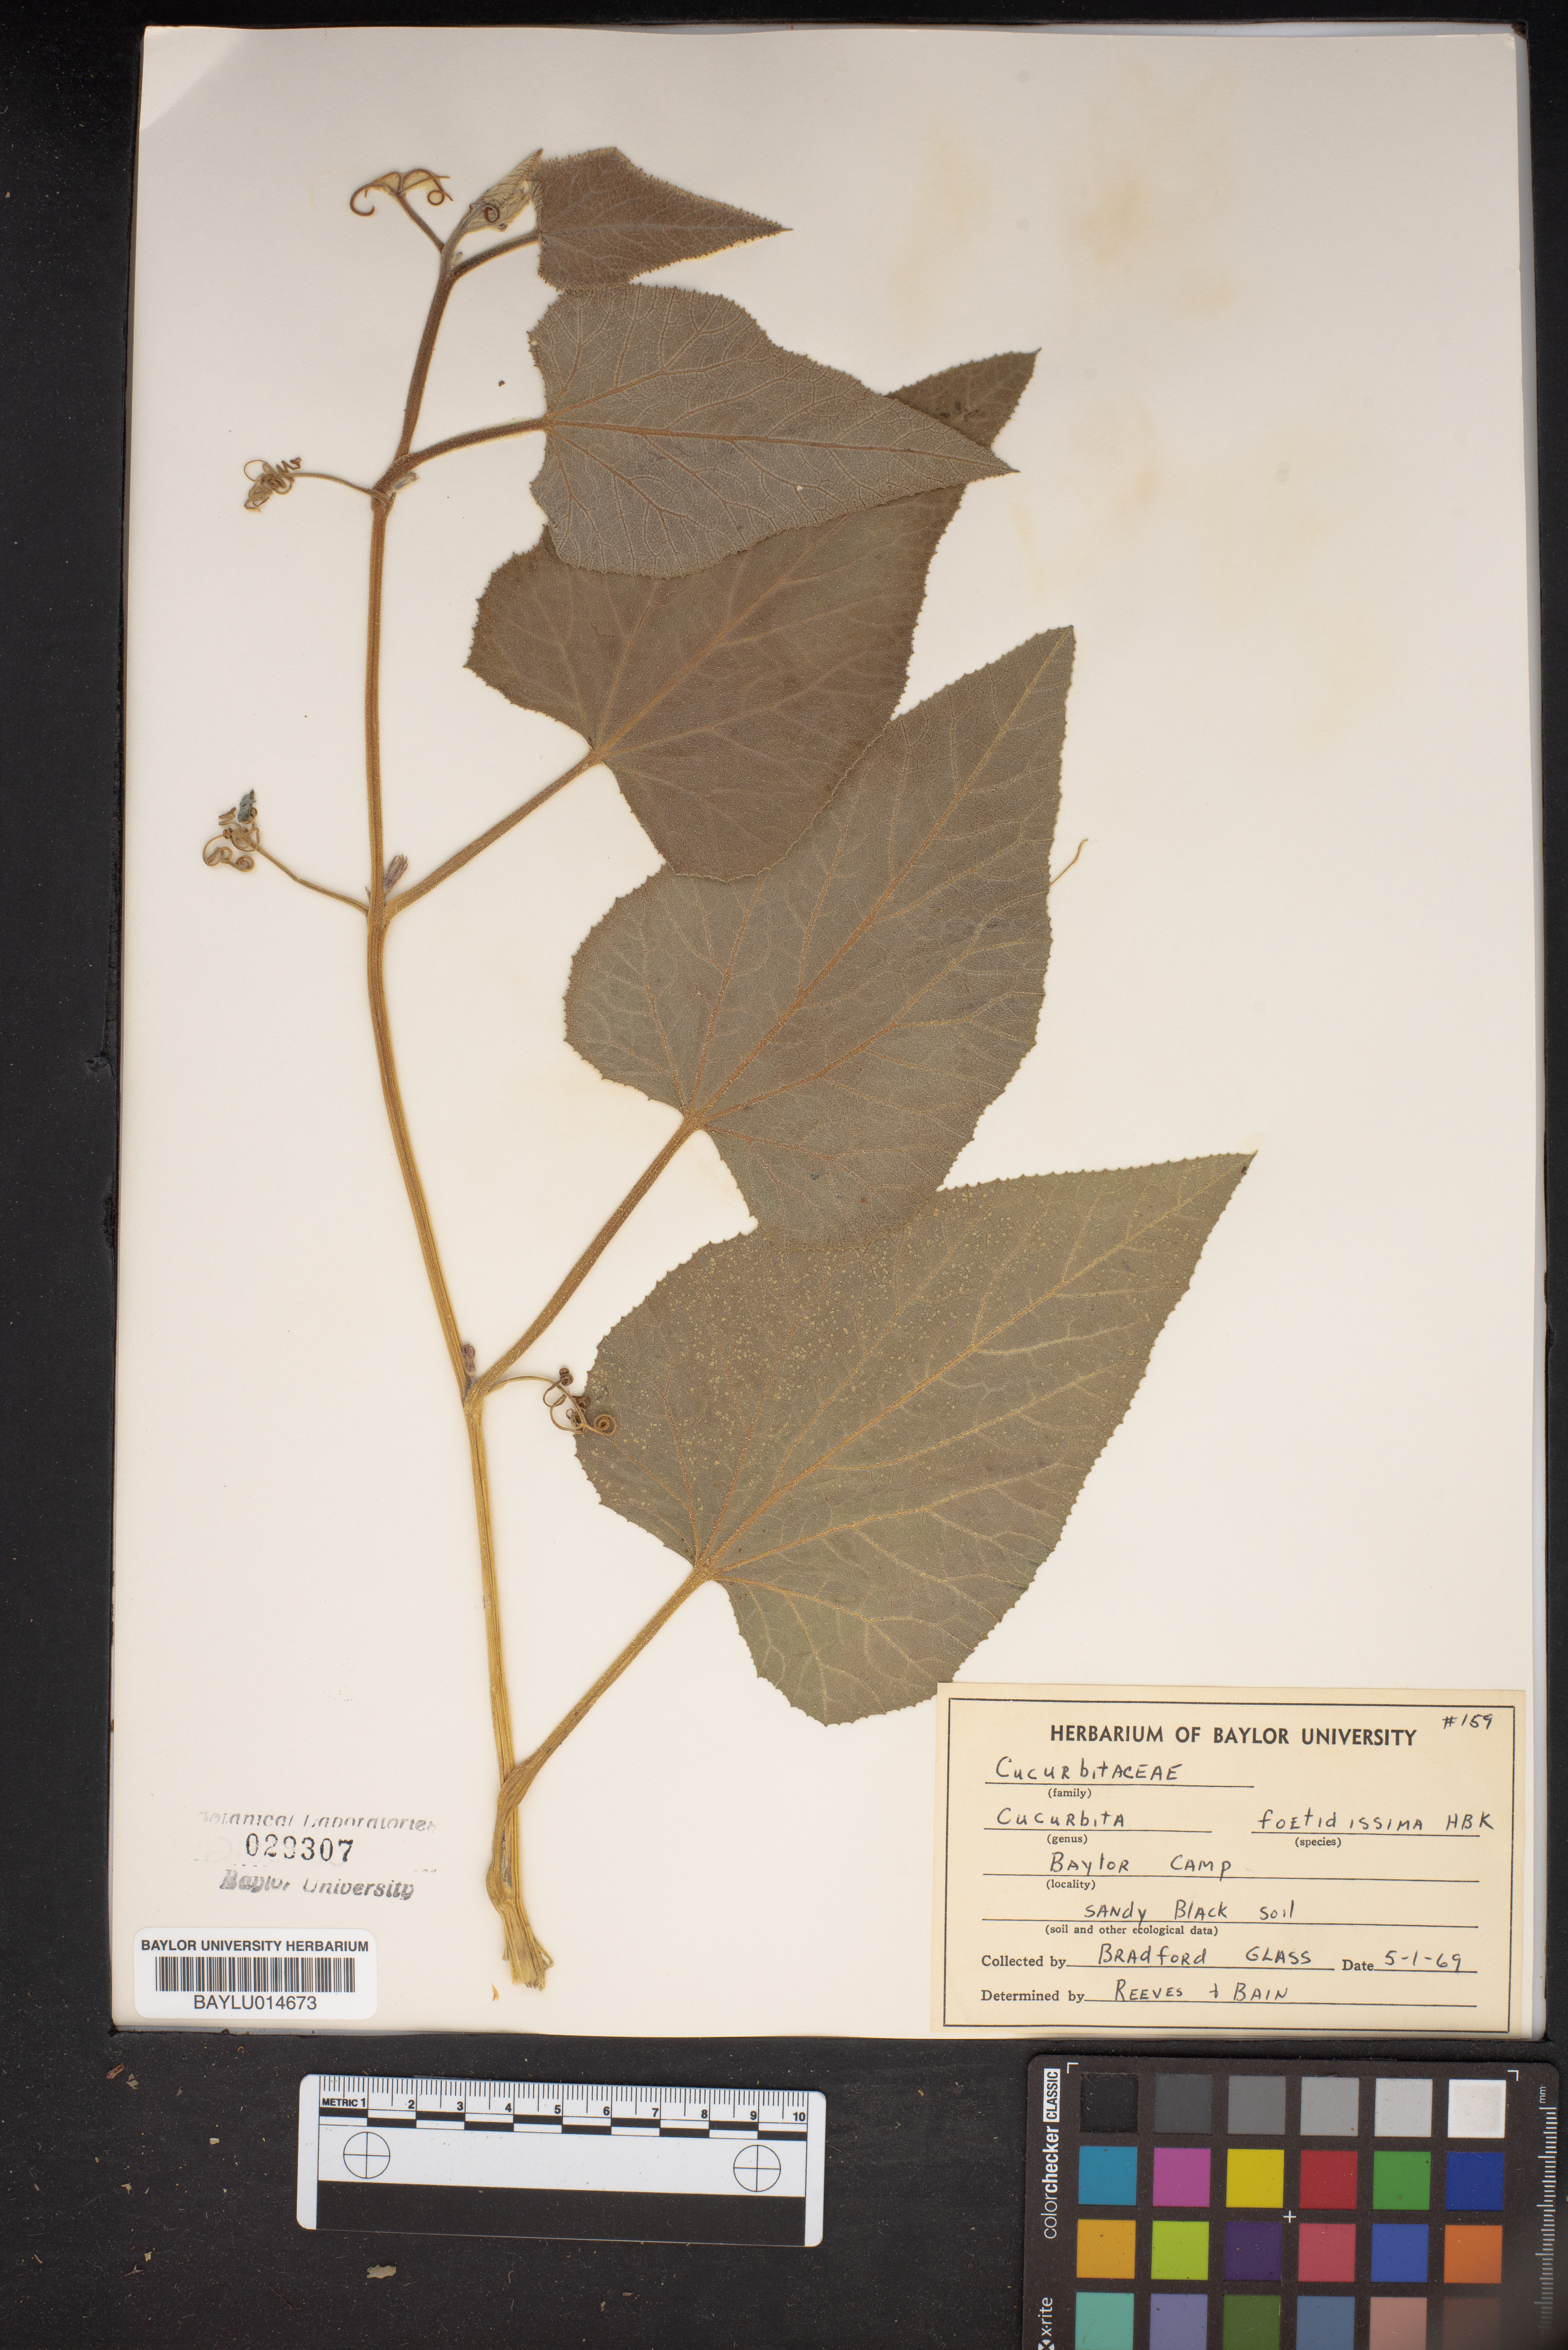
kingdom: Plantae
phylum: Tracheophyta
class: Magnoliopsida
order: Cucurbitales
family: Cucurbitaceae
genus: Cucurbita
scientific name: Cucurbita foetidissima
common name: Buffalo gourd
